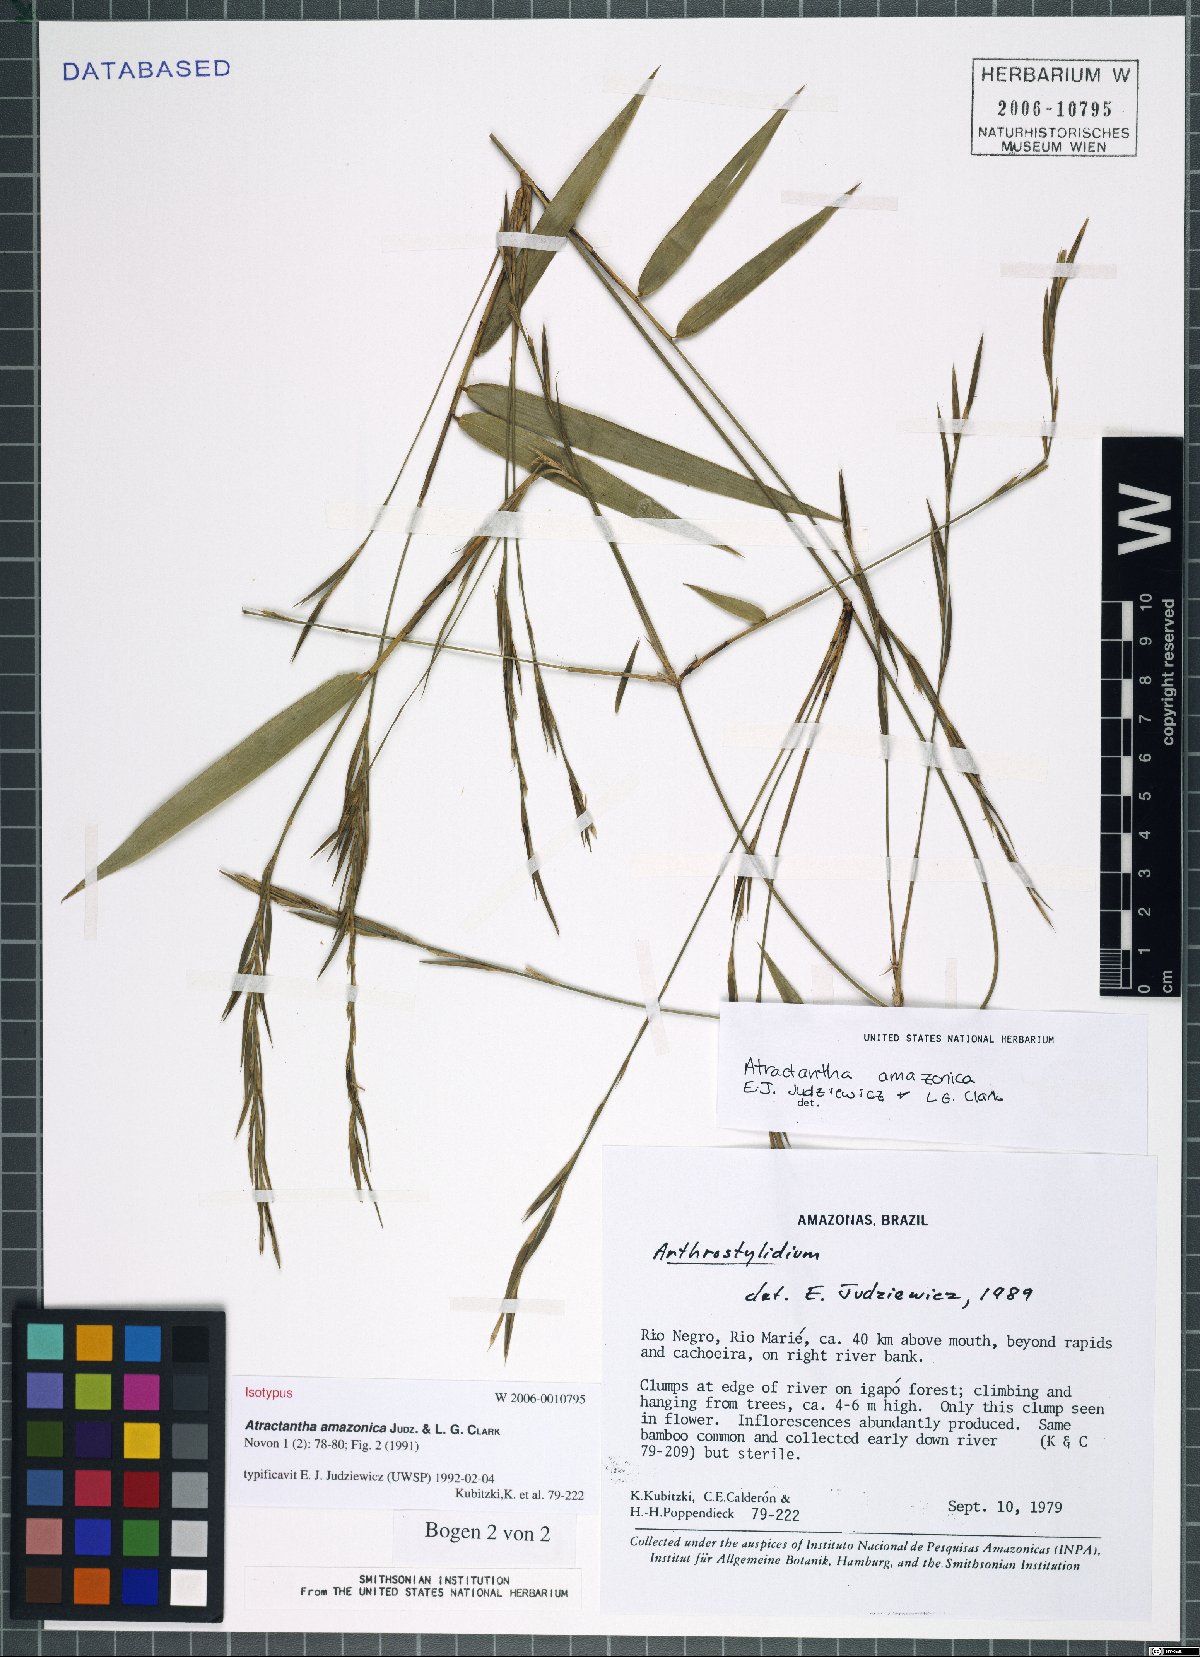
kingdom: Plantae
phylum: Tracheophyta
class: Liliopsida
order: Poales
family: Poaceae
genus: Atractantha
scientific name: Atractantha amazonica
